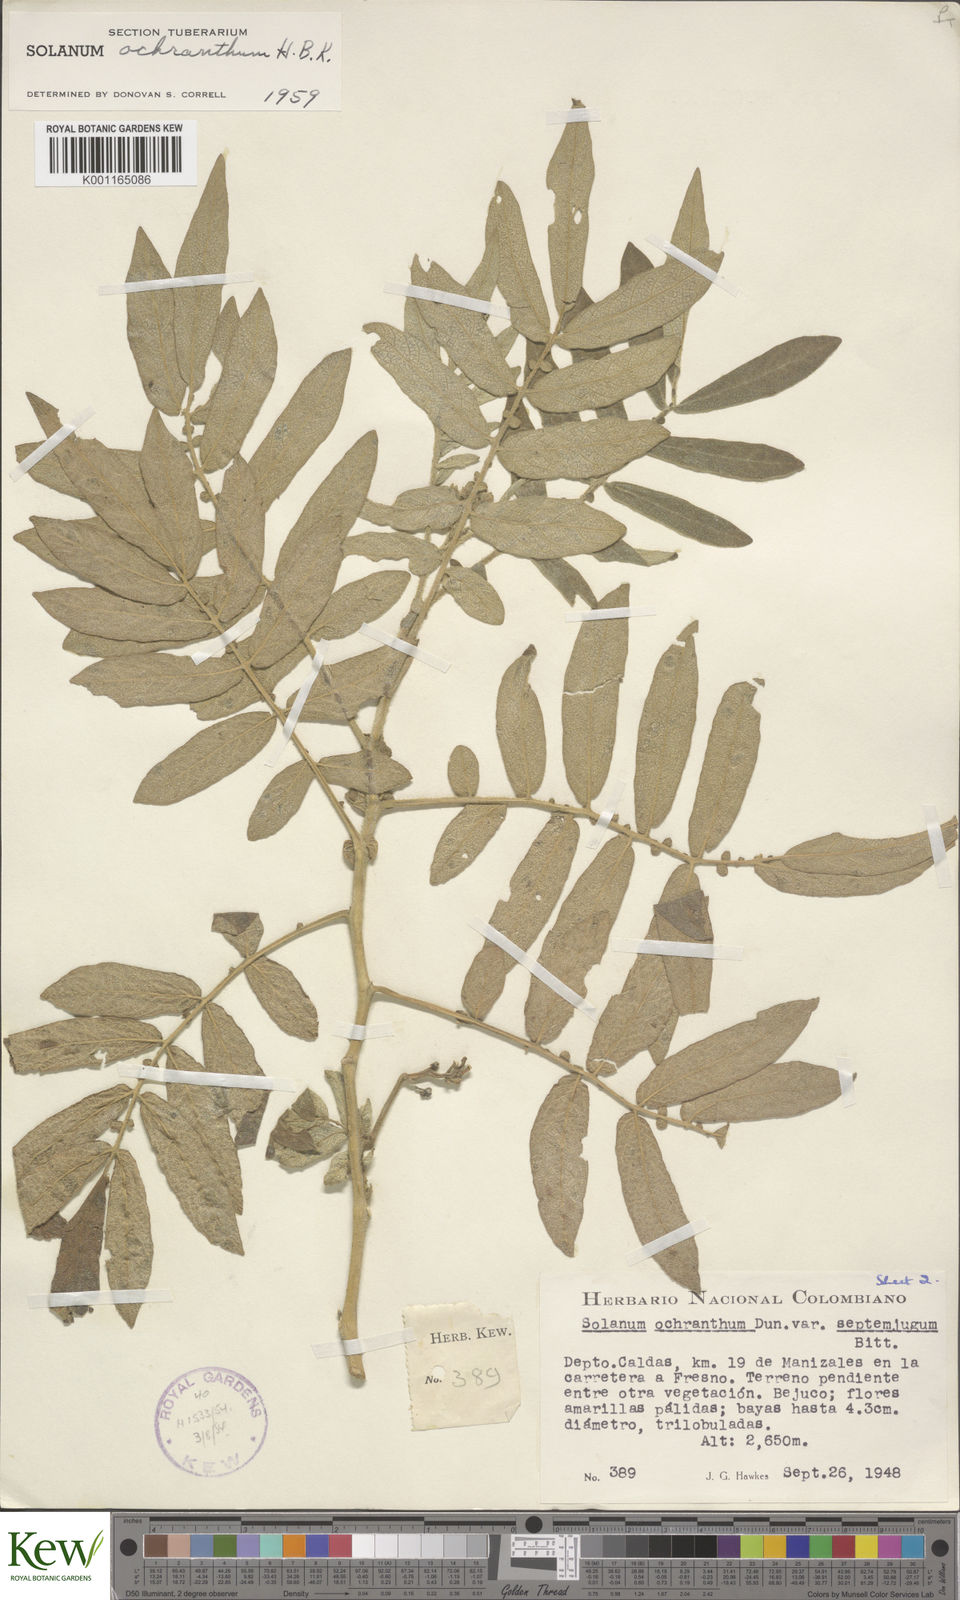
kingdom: Plantae
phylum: Tracheophyta
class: Magnoliopsida
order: Solanales
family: Solanaceae
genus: Solanum
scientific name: Solanum ochranthum
